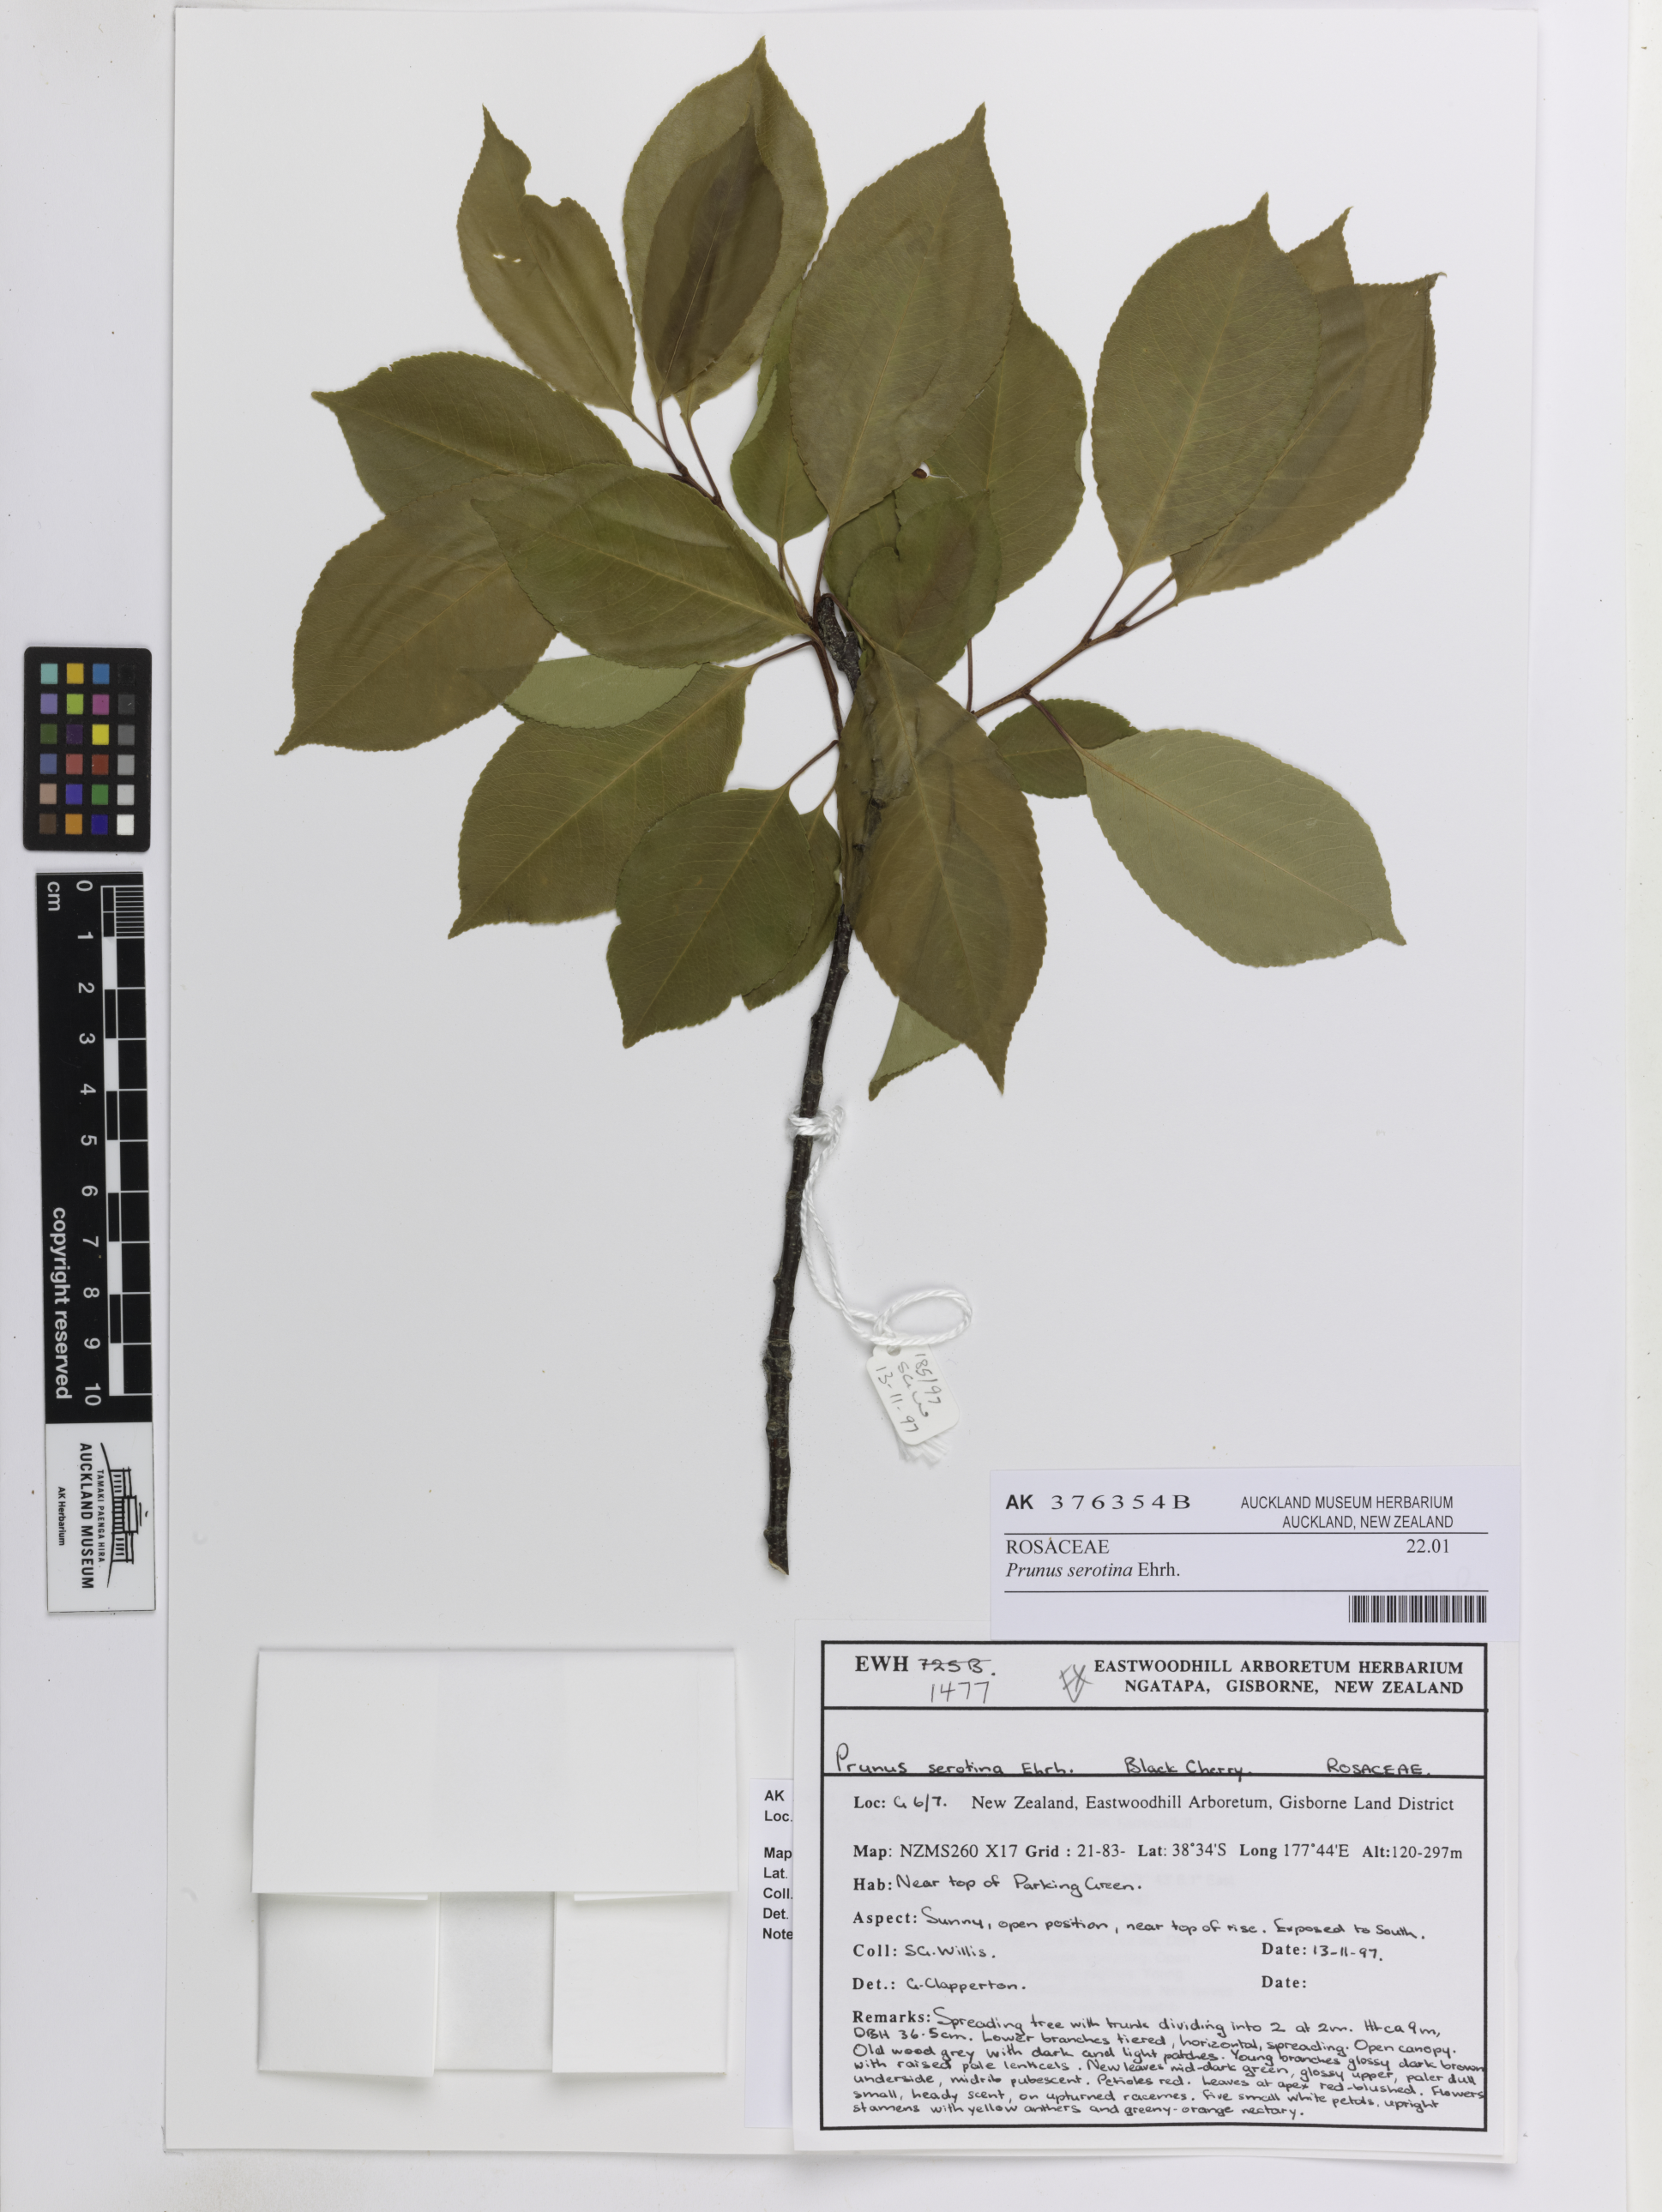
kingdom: Plantae
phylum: Tracheophyta
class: Magnoliopsida
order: Rosales
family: Rosaceae
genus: Prunus
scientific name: Prunus serotina
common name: Black cherry
